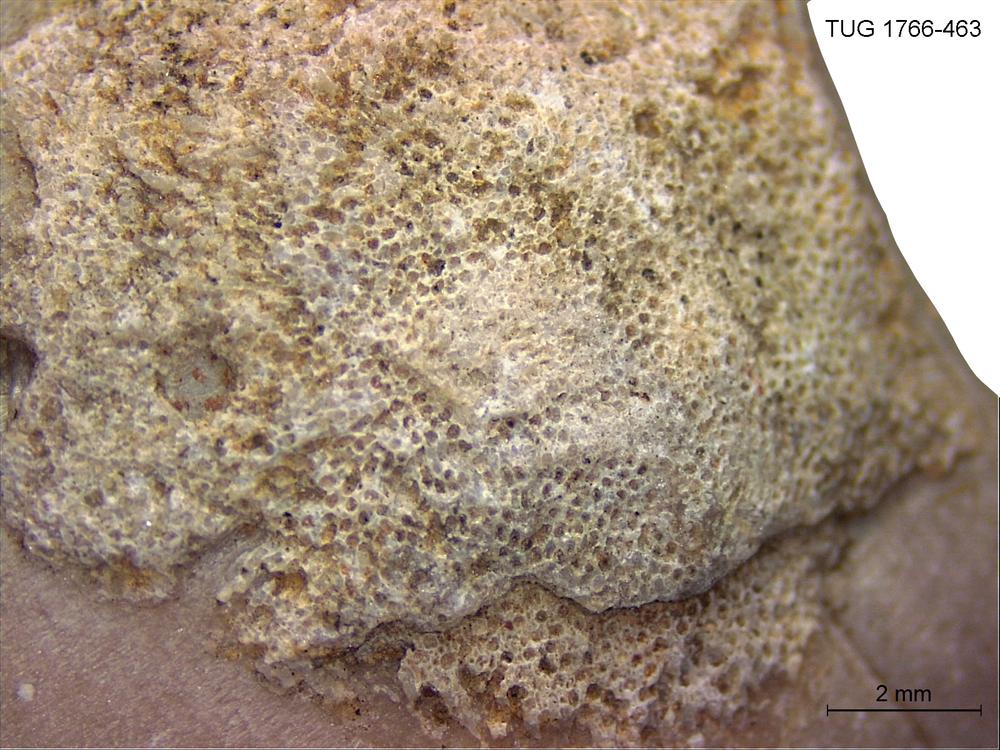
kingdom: Animalia
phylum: Bryozoa
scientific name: Bryozoa
